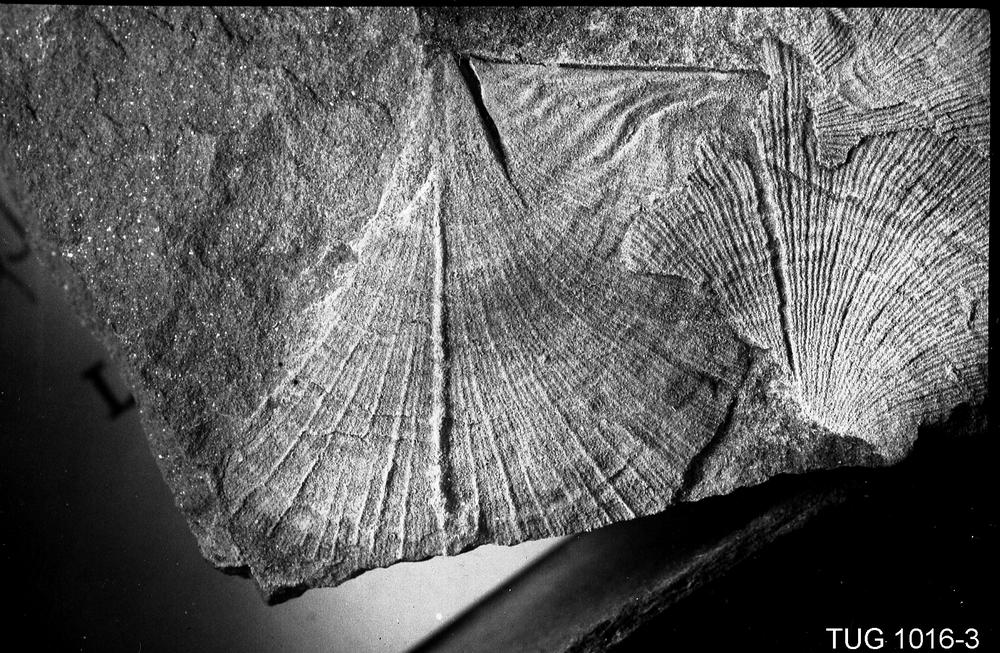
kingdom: Animalia
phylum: Brachiopoda
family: Rafinesquinidae
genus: Kjaerina
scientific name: Kjaerina typa
